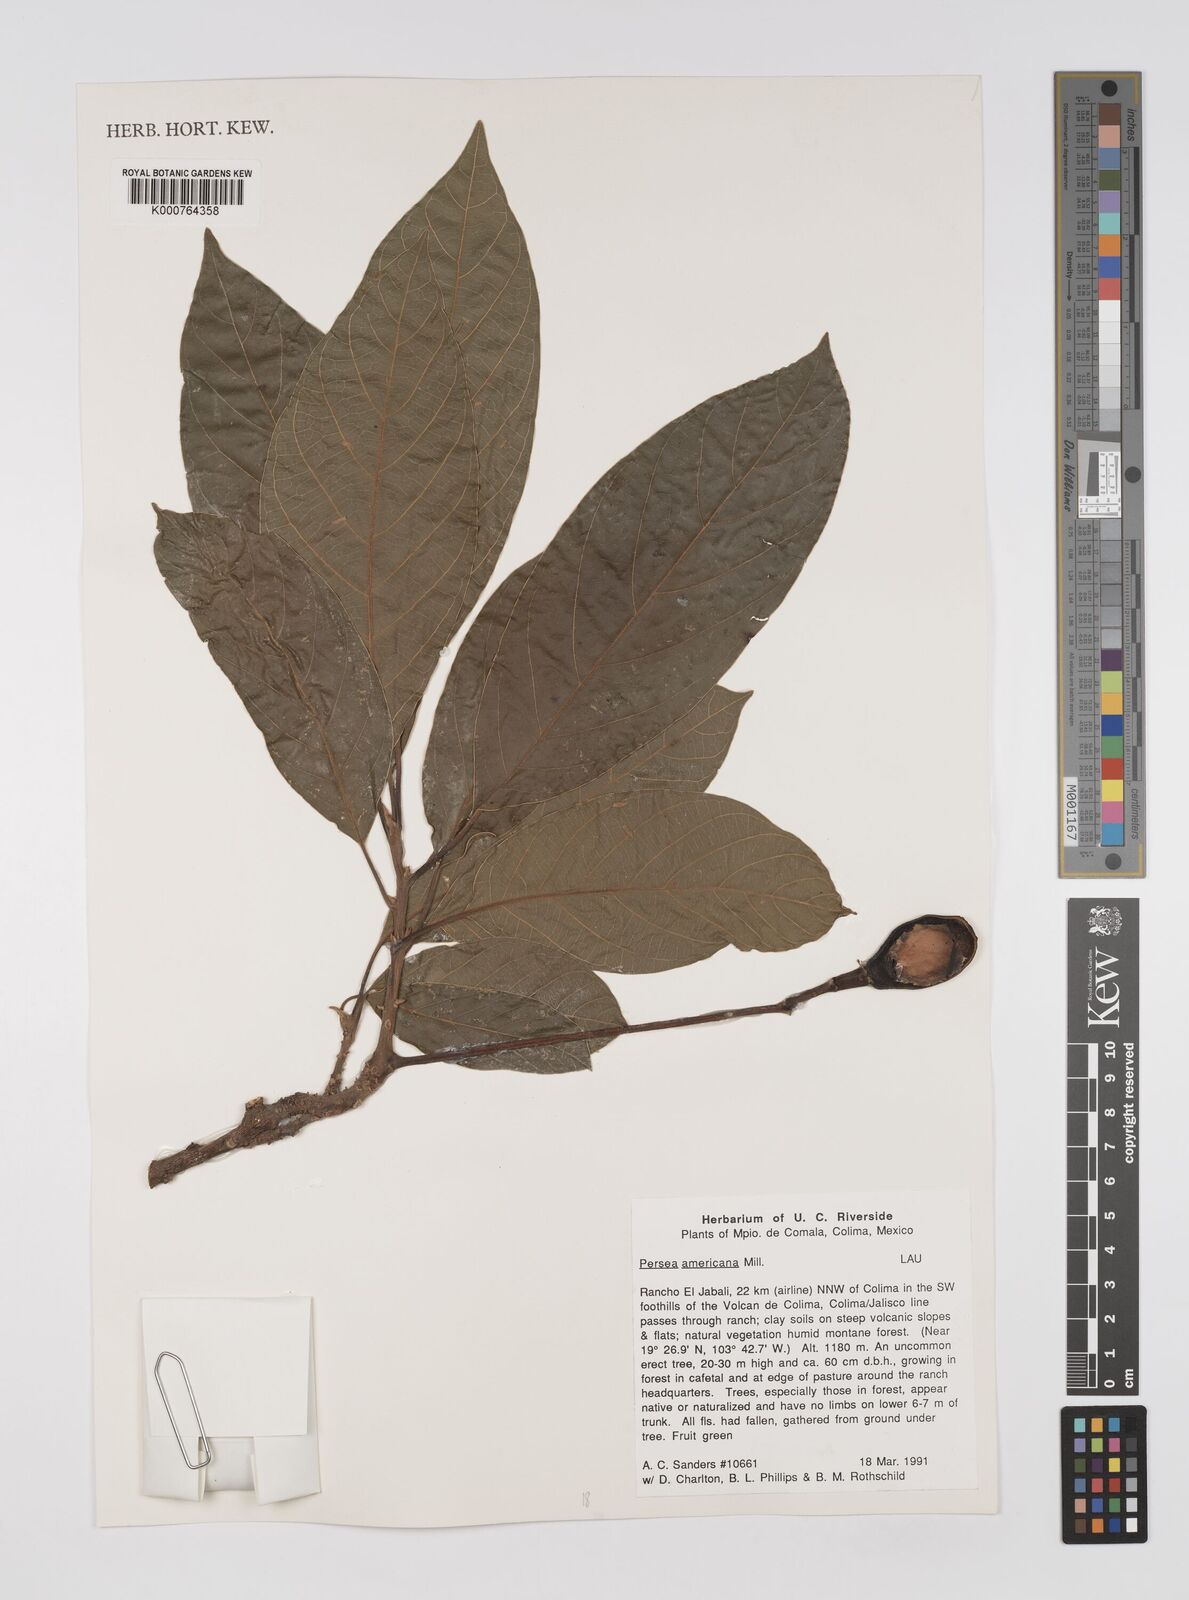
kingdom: Plantae
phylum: Tracheophyta
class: Magnoliopsida
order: Laurales
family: Lauraceae
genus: Persea
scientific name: Persea americana
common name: Avocado
